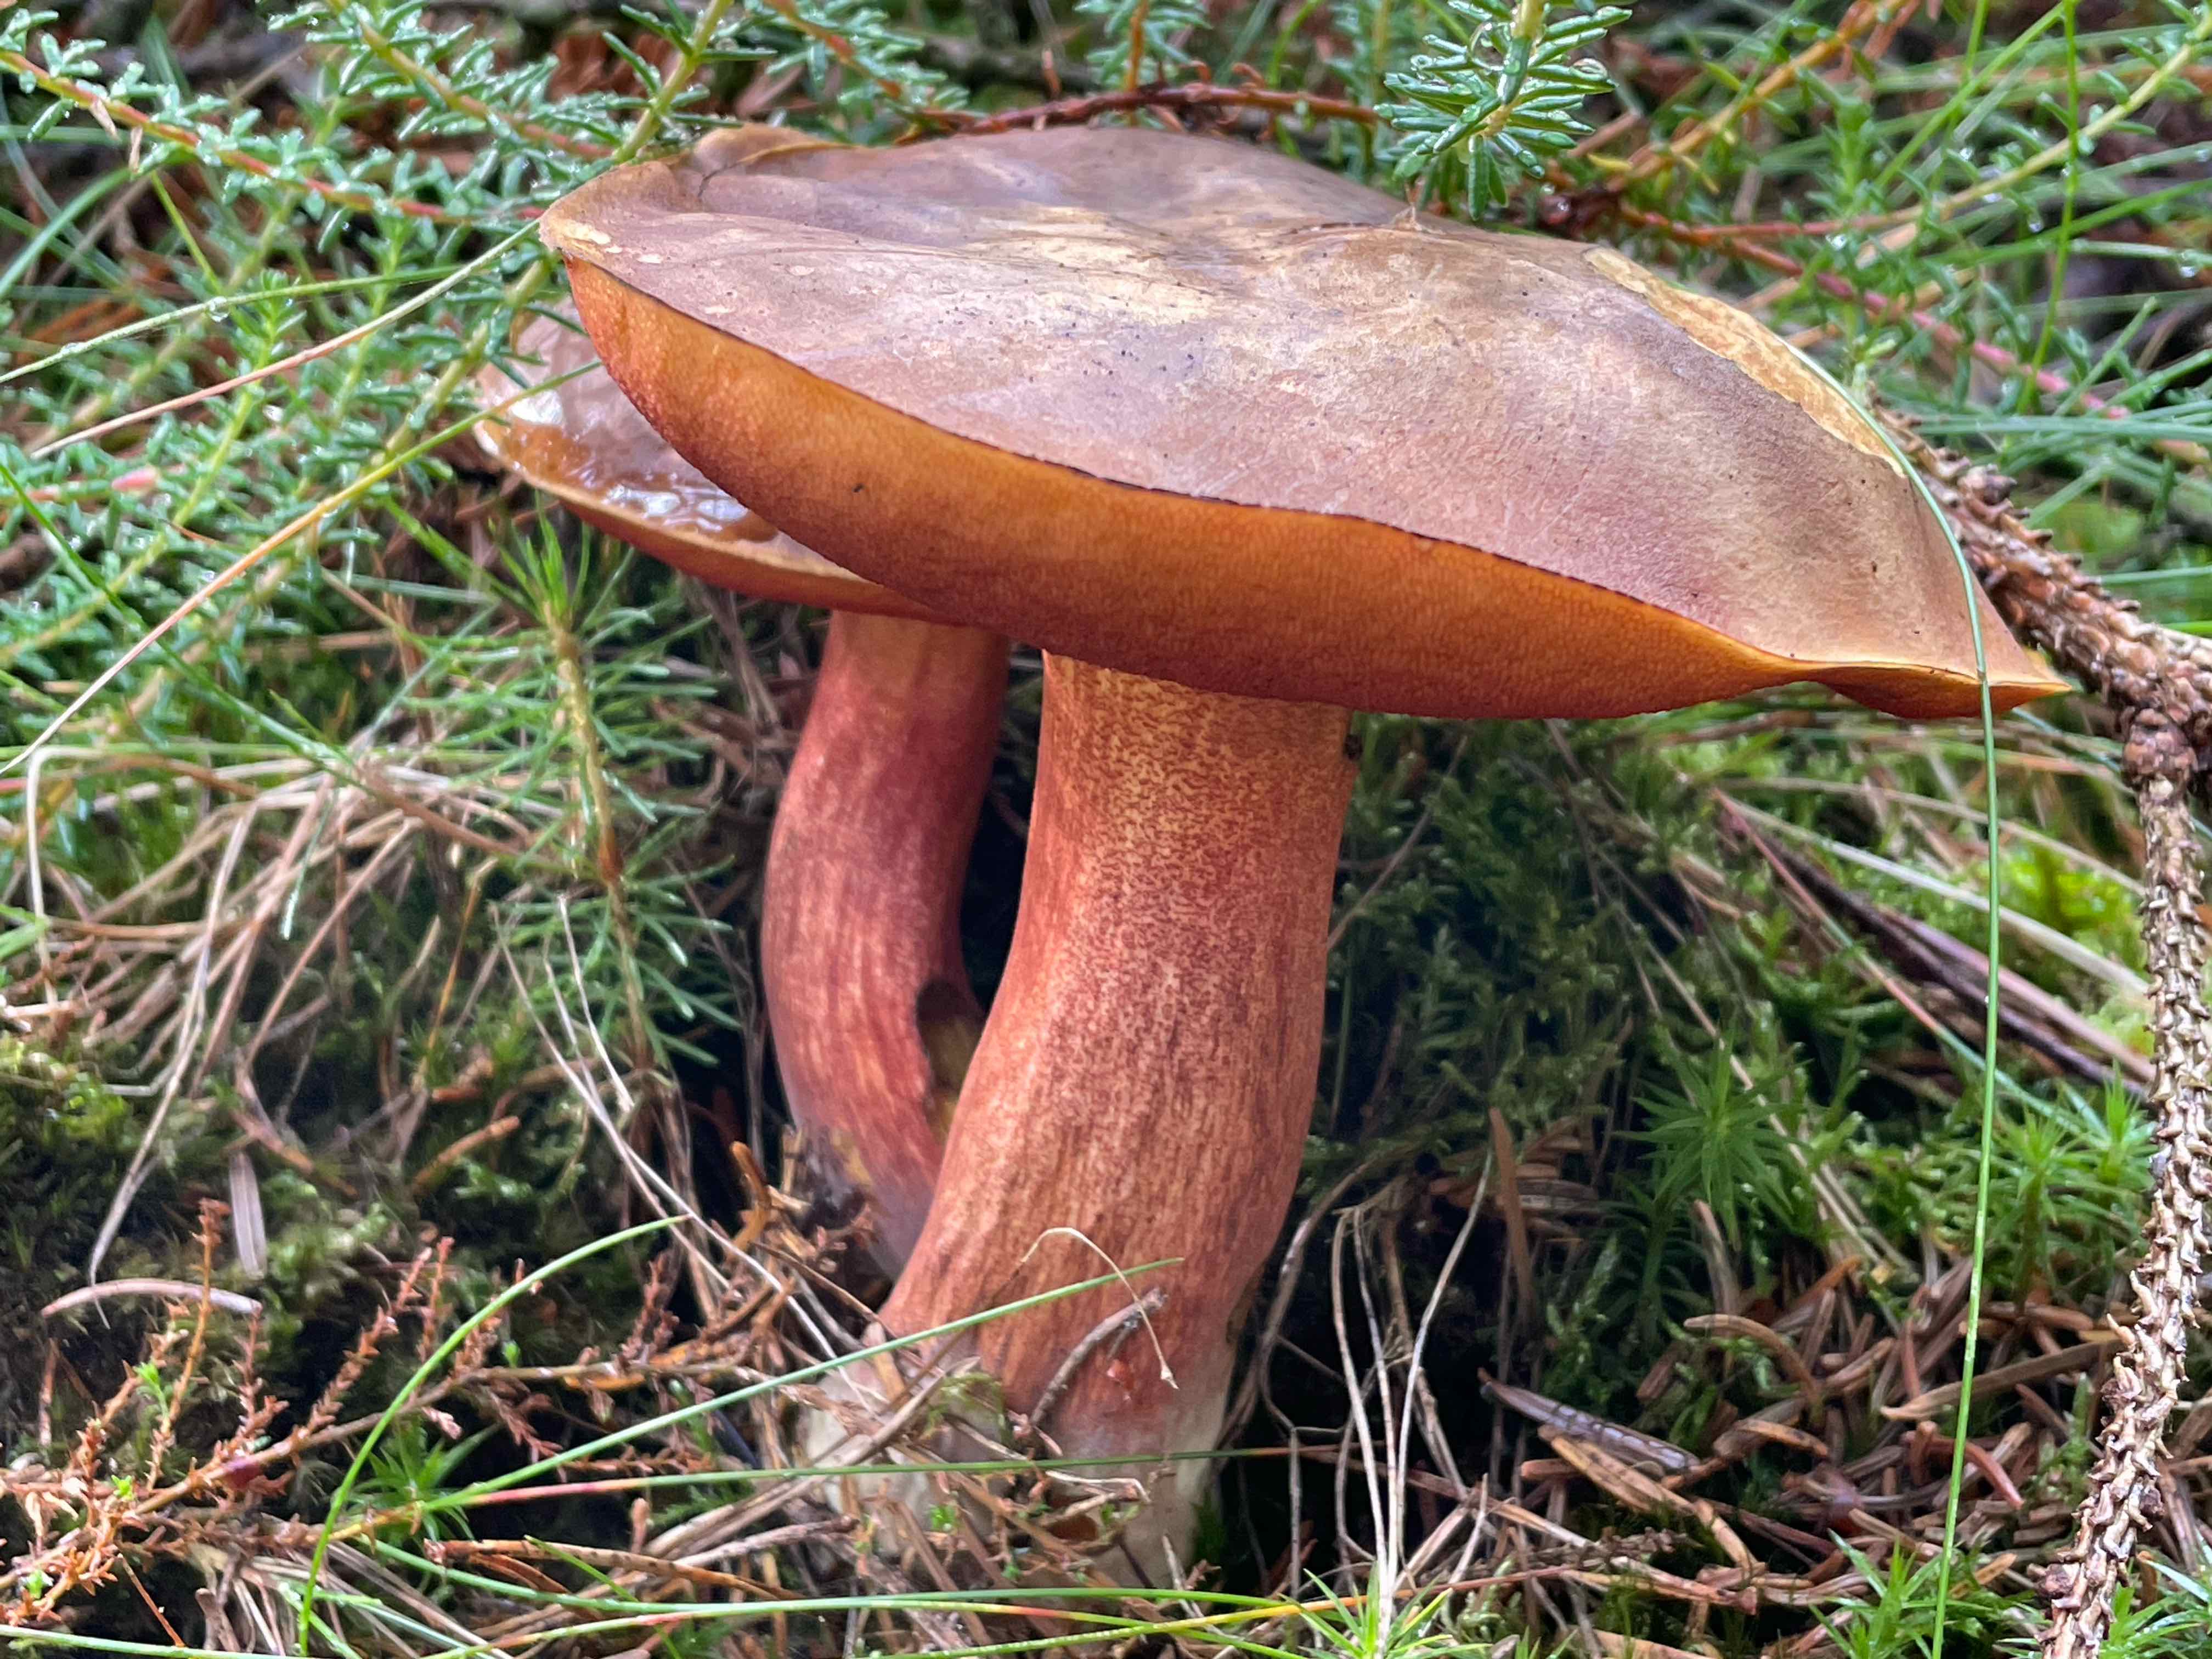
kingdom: Fungi
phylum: Basidiomycota
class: Agaricomycetes
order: Boletales
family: Boletaceae
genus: Neoboletus
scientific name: Neoboletus erythropus
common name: punktstokket indigorørhat
